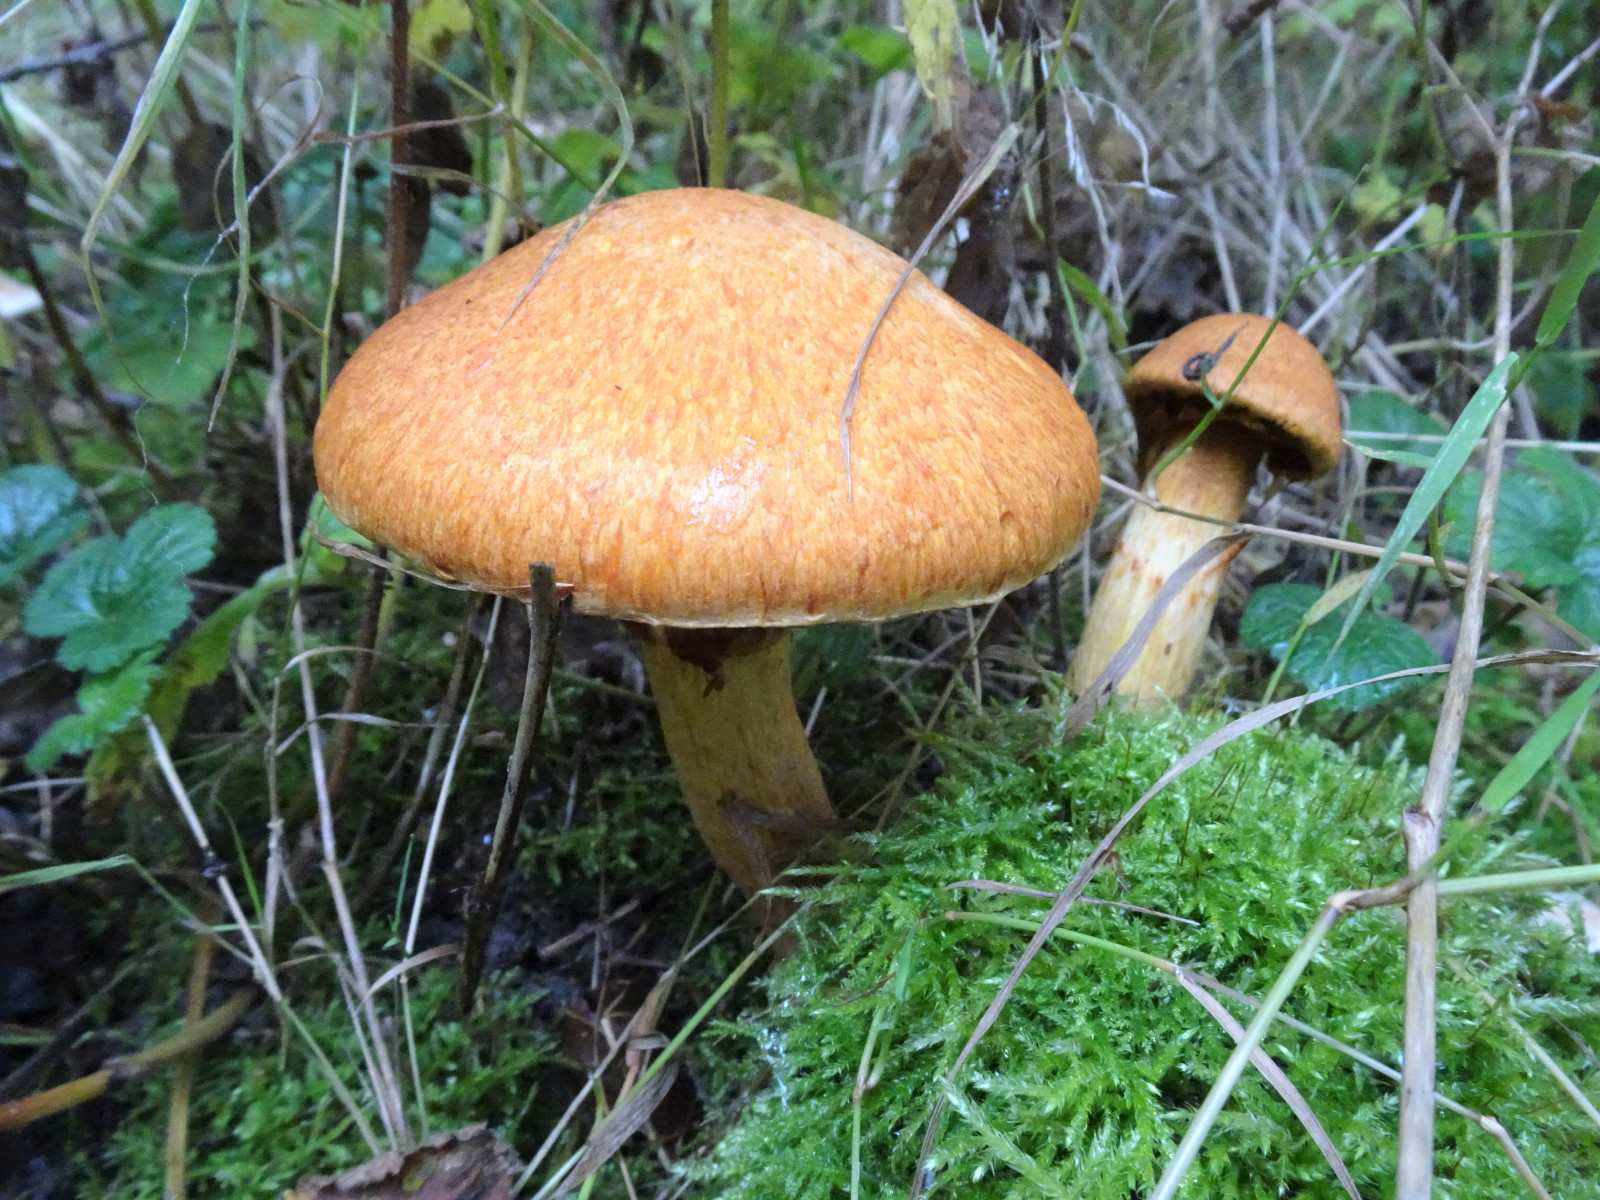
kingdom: Fungi
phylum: Basidiomycota
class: Agaricomycetes
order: Agaricales
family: Hymenogastraceae
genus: Gymnopilus
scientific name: Gymnopilus spectabilis
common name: fibret flammehat
